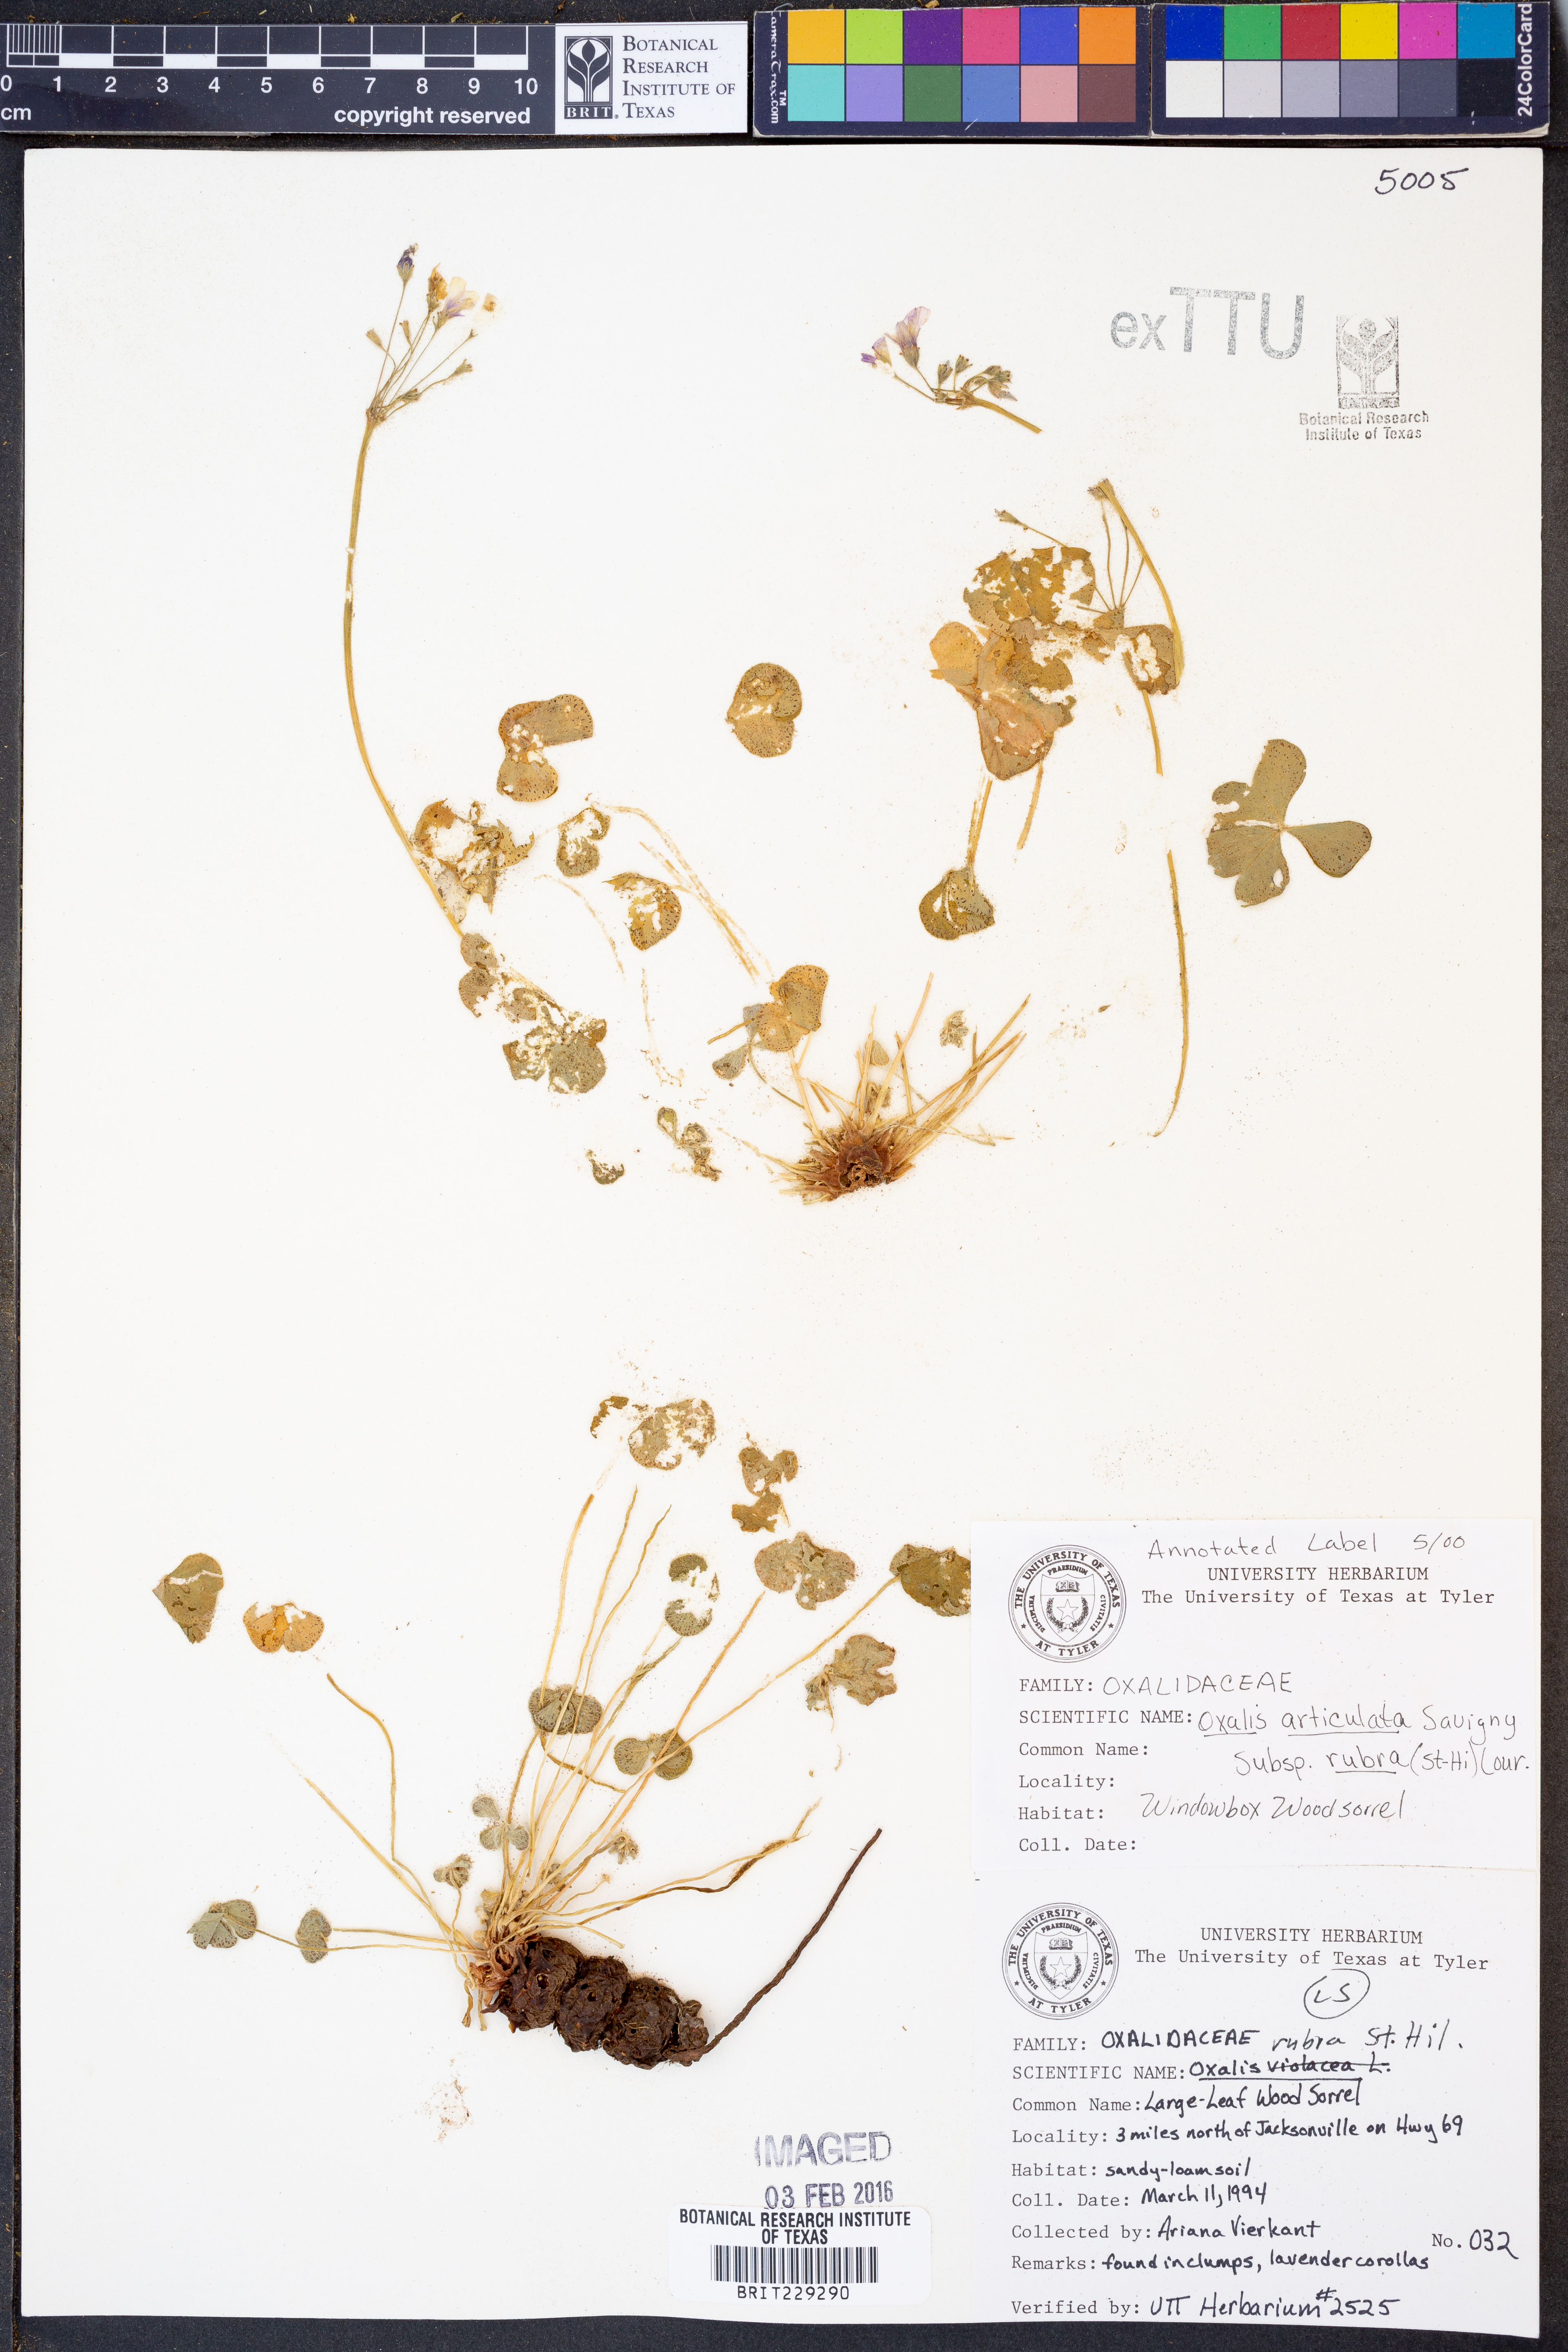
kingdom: Plantae
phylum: Tracheophyta
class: Magnoliopsida
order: Oxalidales
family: Oxalidaceae
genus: Oxalis
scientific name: Oxalis articulata
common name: Pink-sorrel
